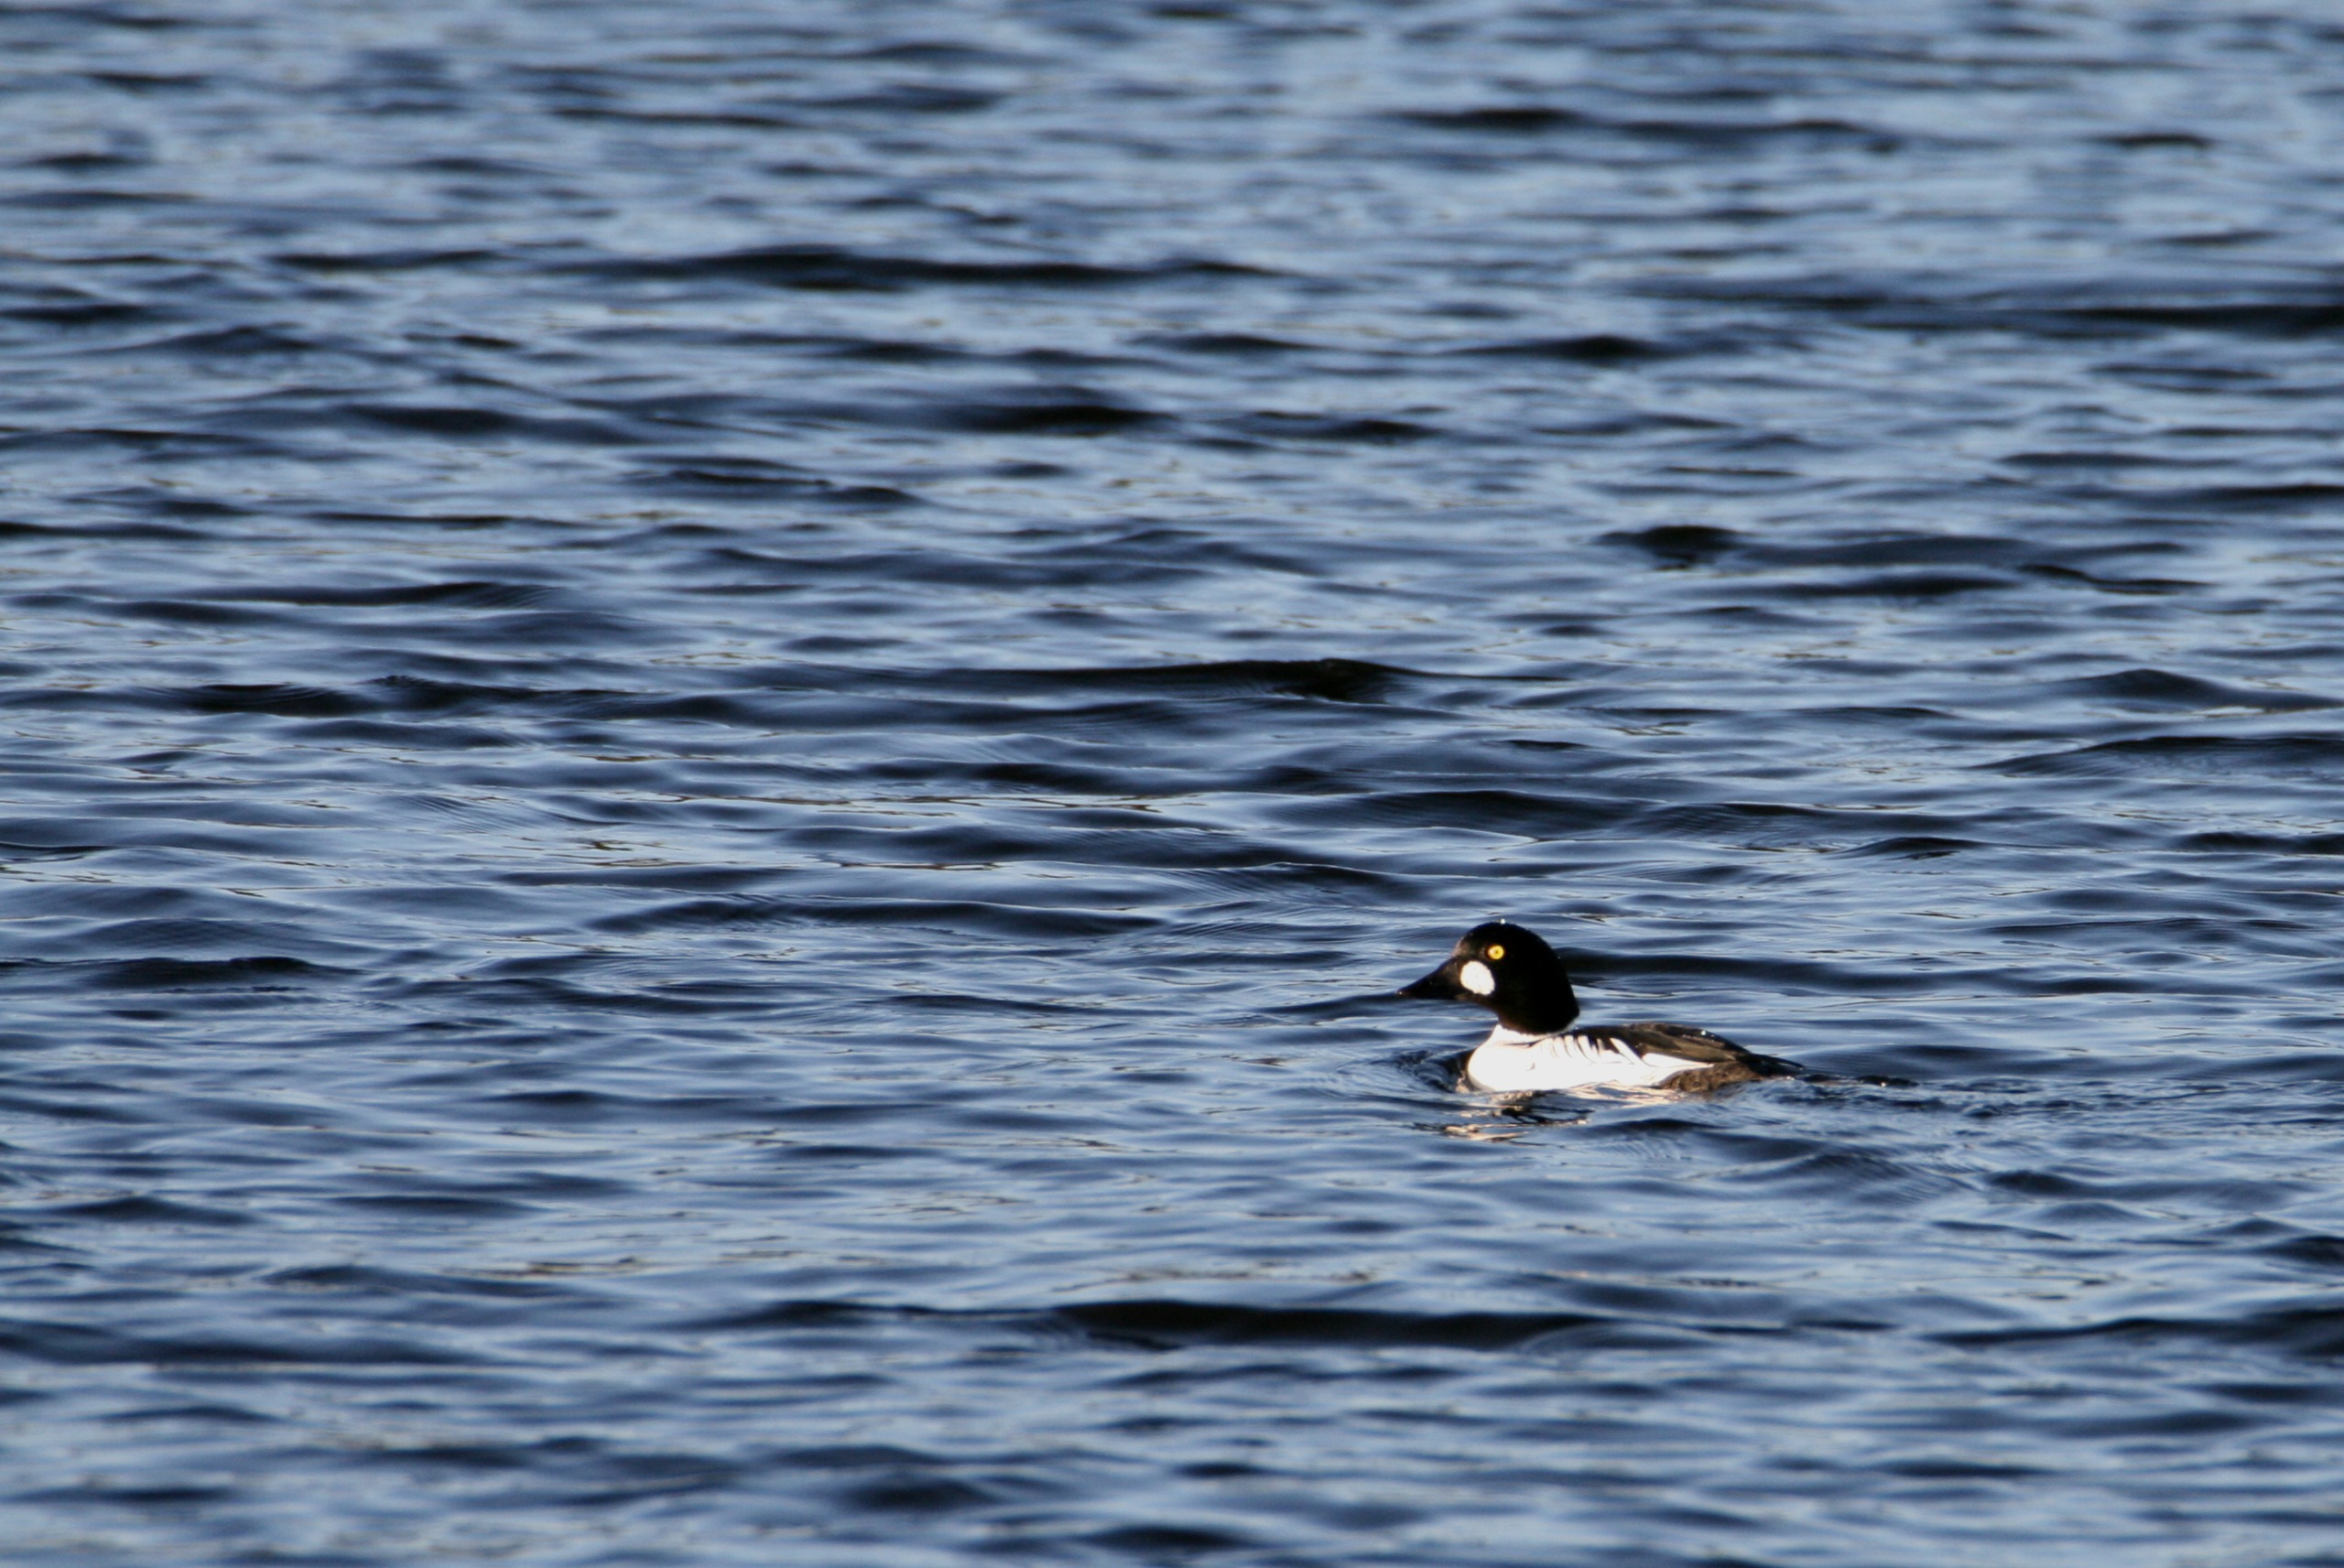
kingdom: Animalia
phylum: Chordata
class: Aves
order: Anseriformes
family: Anatidae
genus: Bucephala
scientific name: Bucephala clangula
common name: Hvinand
